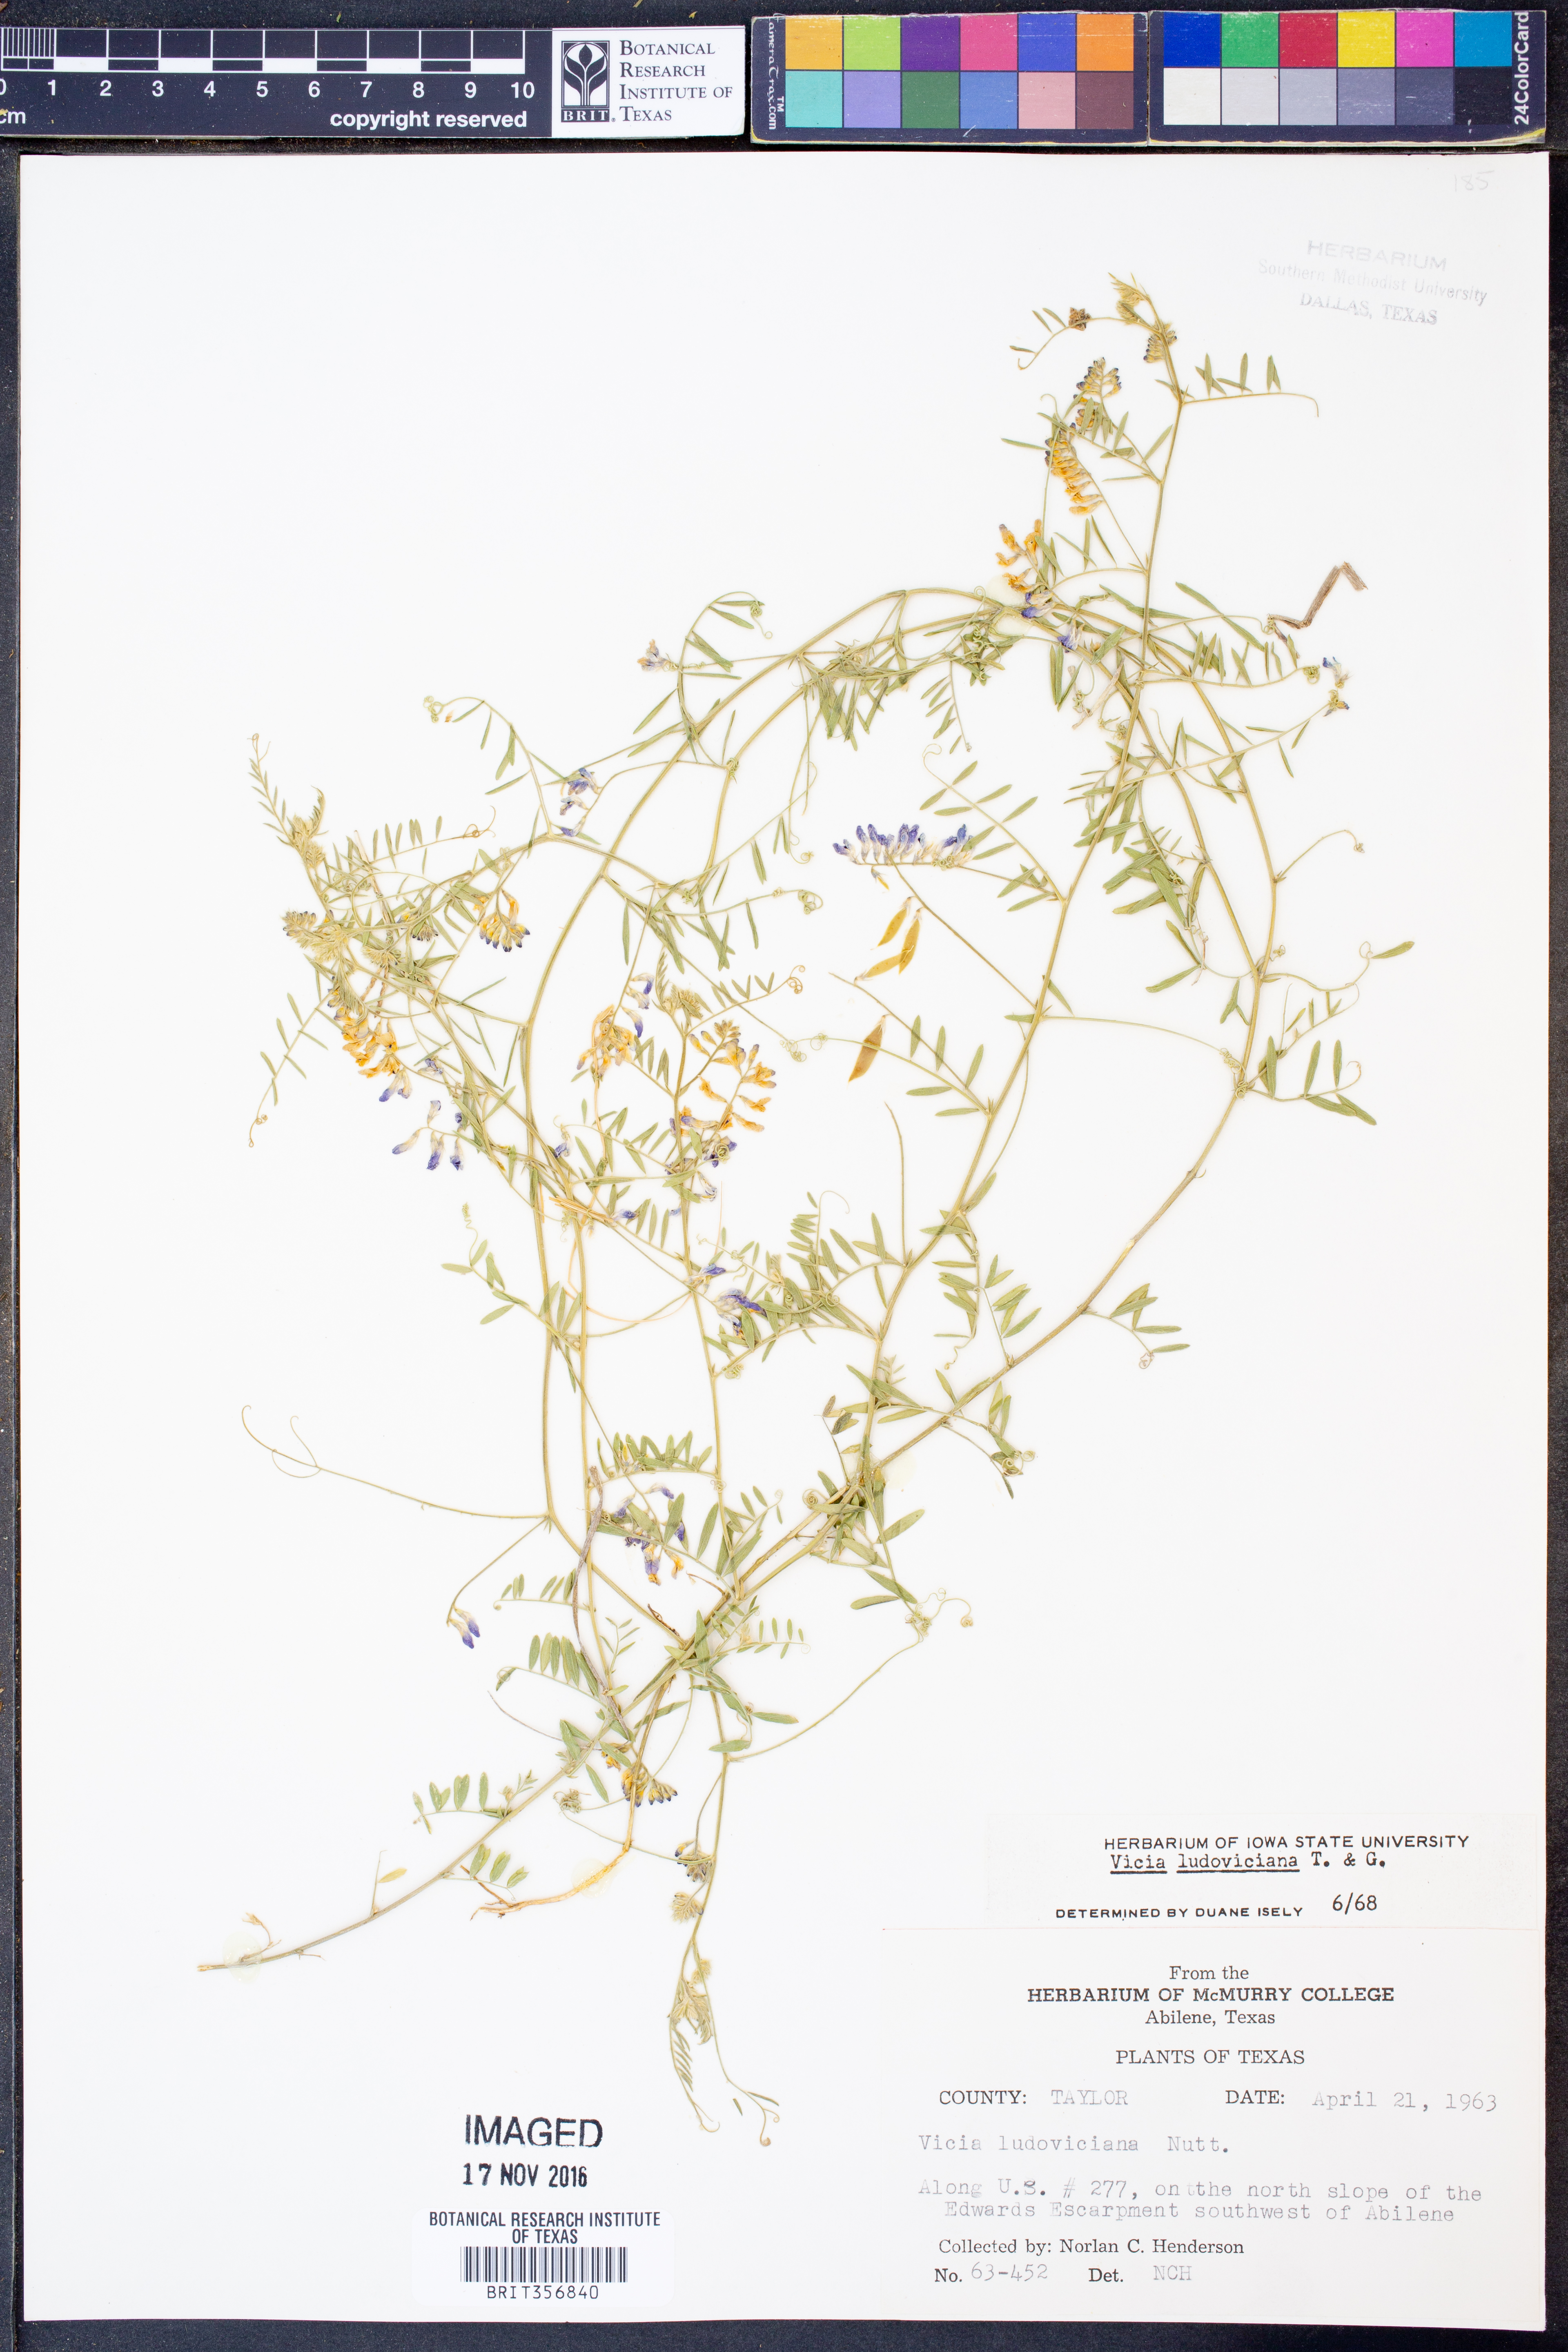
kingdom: Plantae
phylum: Tracheophyta
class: Magnoliopsida
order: Fabales
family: Fabaceae
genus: Vicia
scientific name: Vicia ludoviciana
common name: Louisiana vetch
